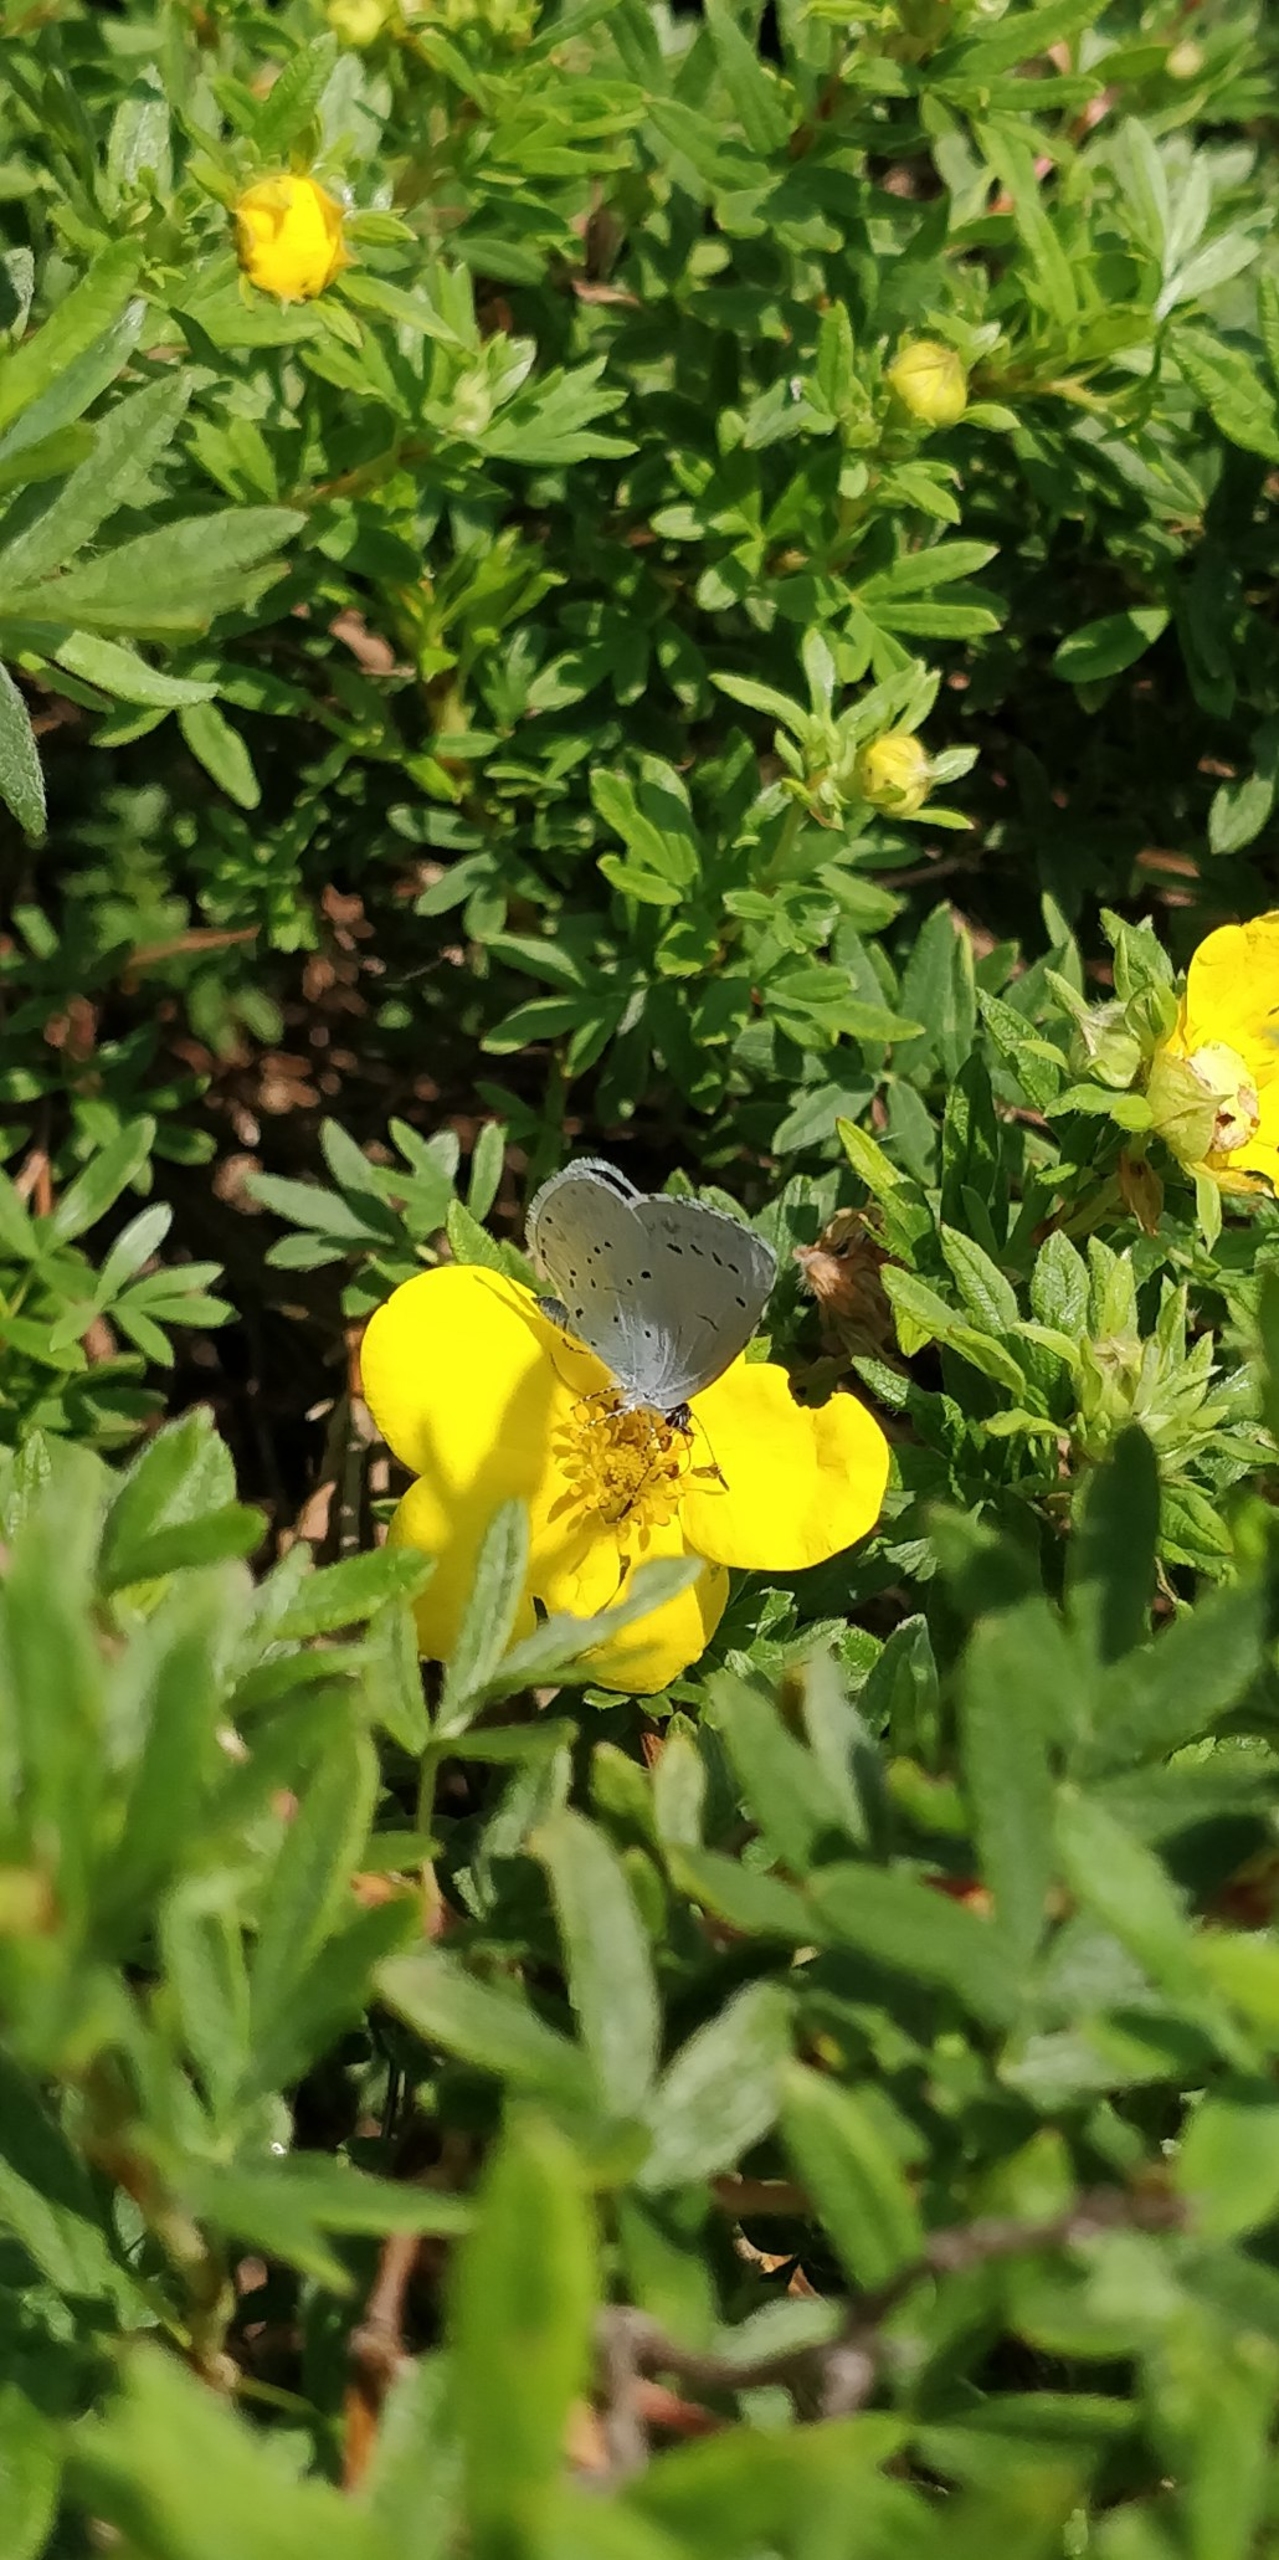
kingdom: Animalia
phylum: Arthropoda
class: Insecta
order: Lepidoptera
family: Lycaenidae
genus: Celastrina
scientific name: Celastrina argiolus
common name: Skovblåfugl
